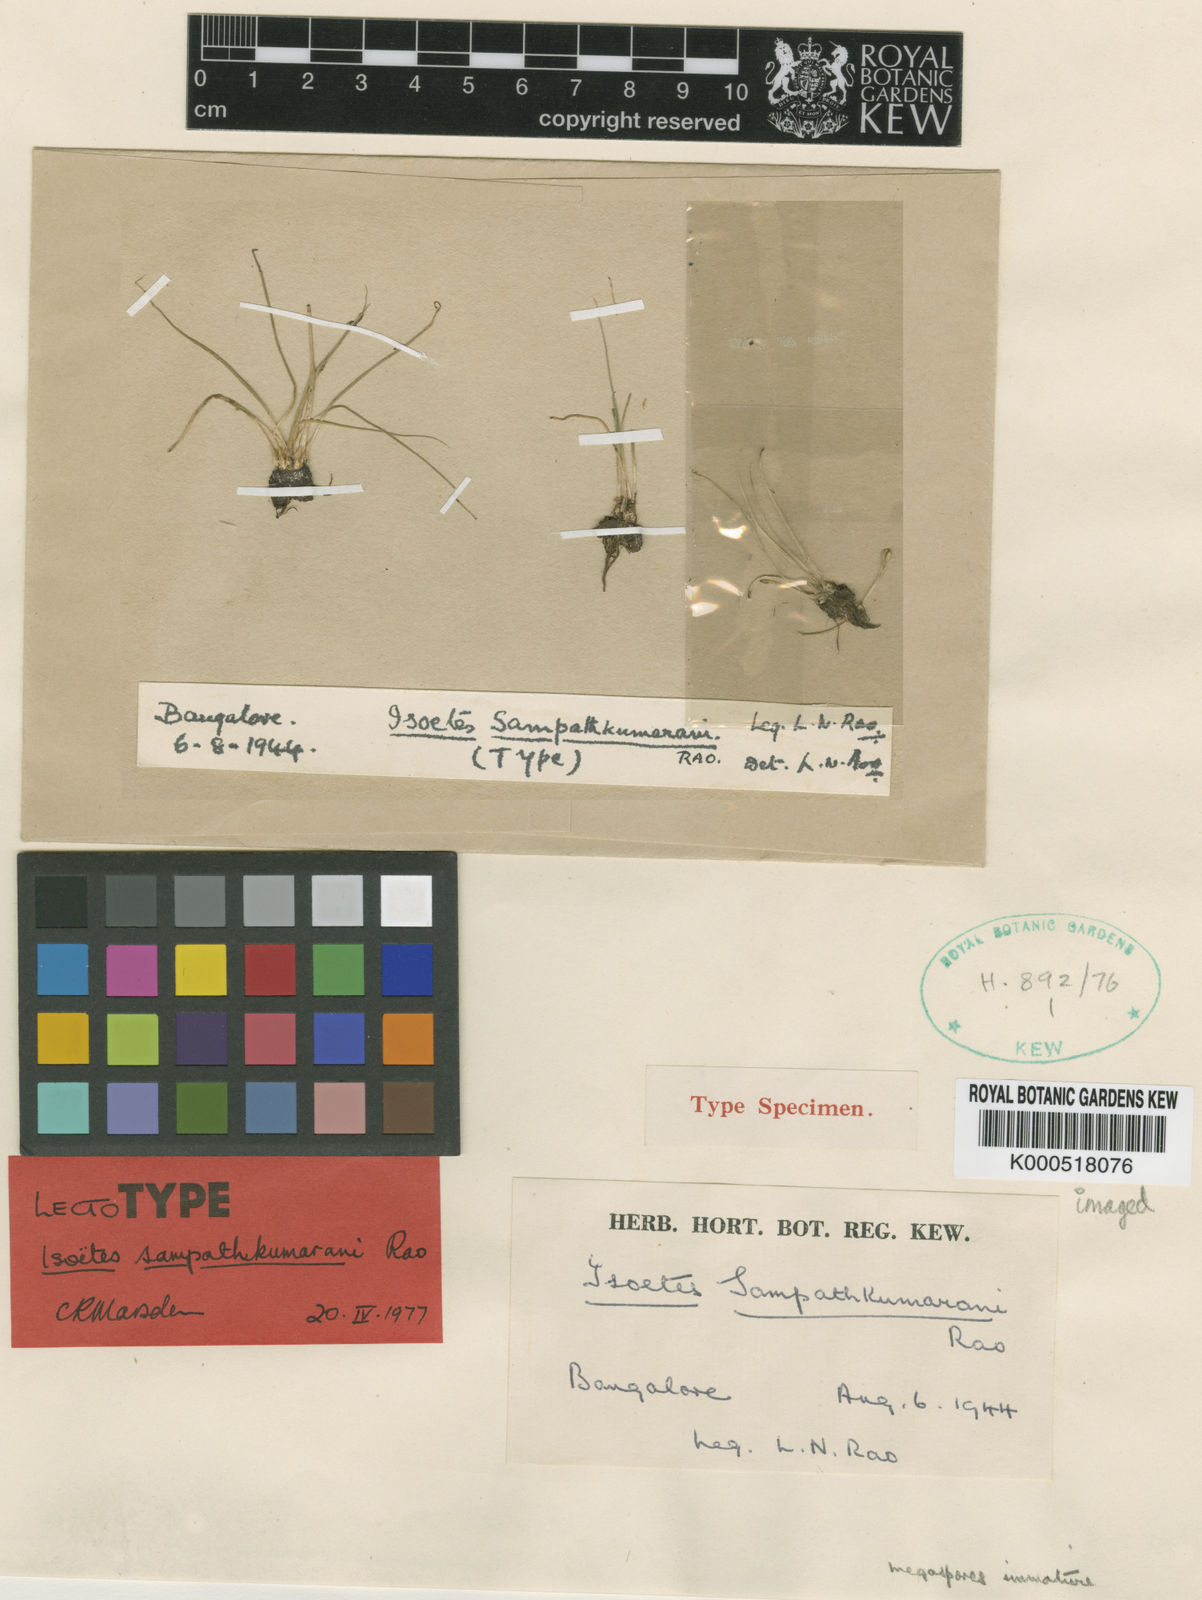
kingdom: Plantae
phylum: Tracheophyta
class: Lycopodiopsida
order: Isoetales
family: Isoetaceae
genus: Isoetes
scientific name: Isoetes coromandelina
